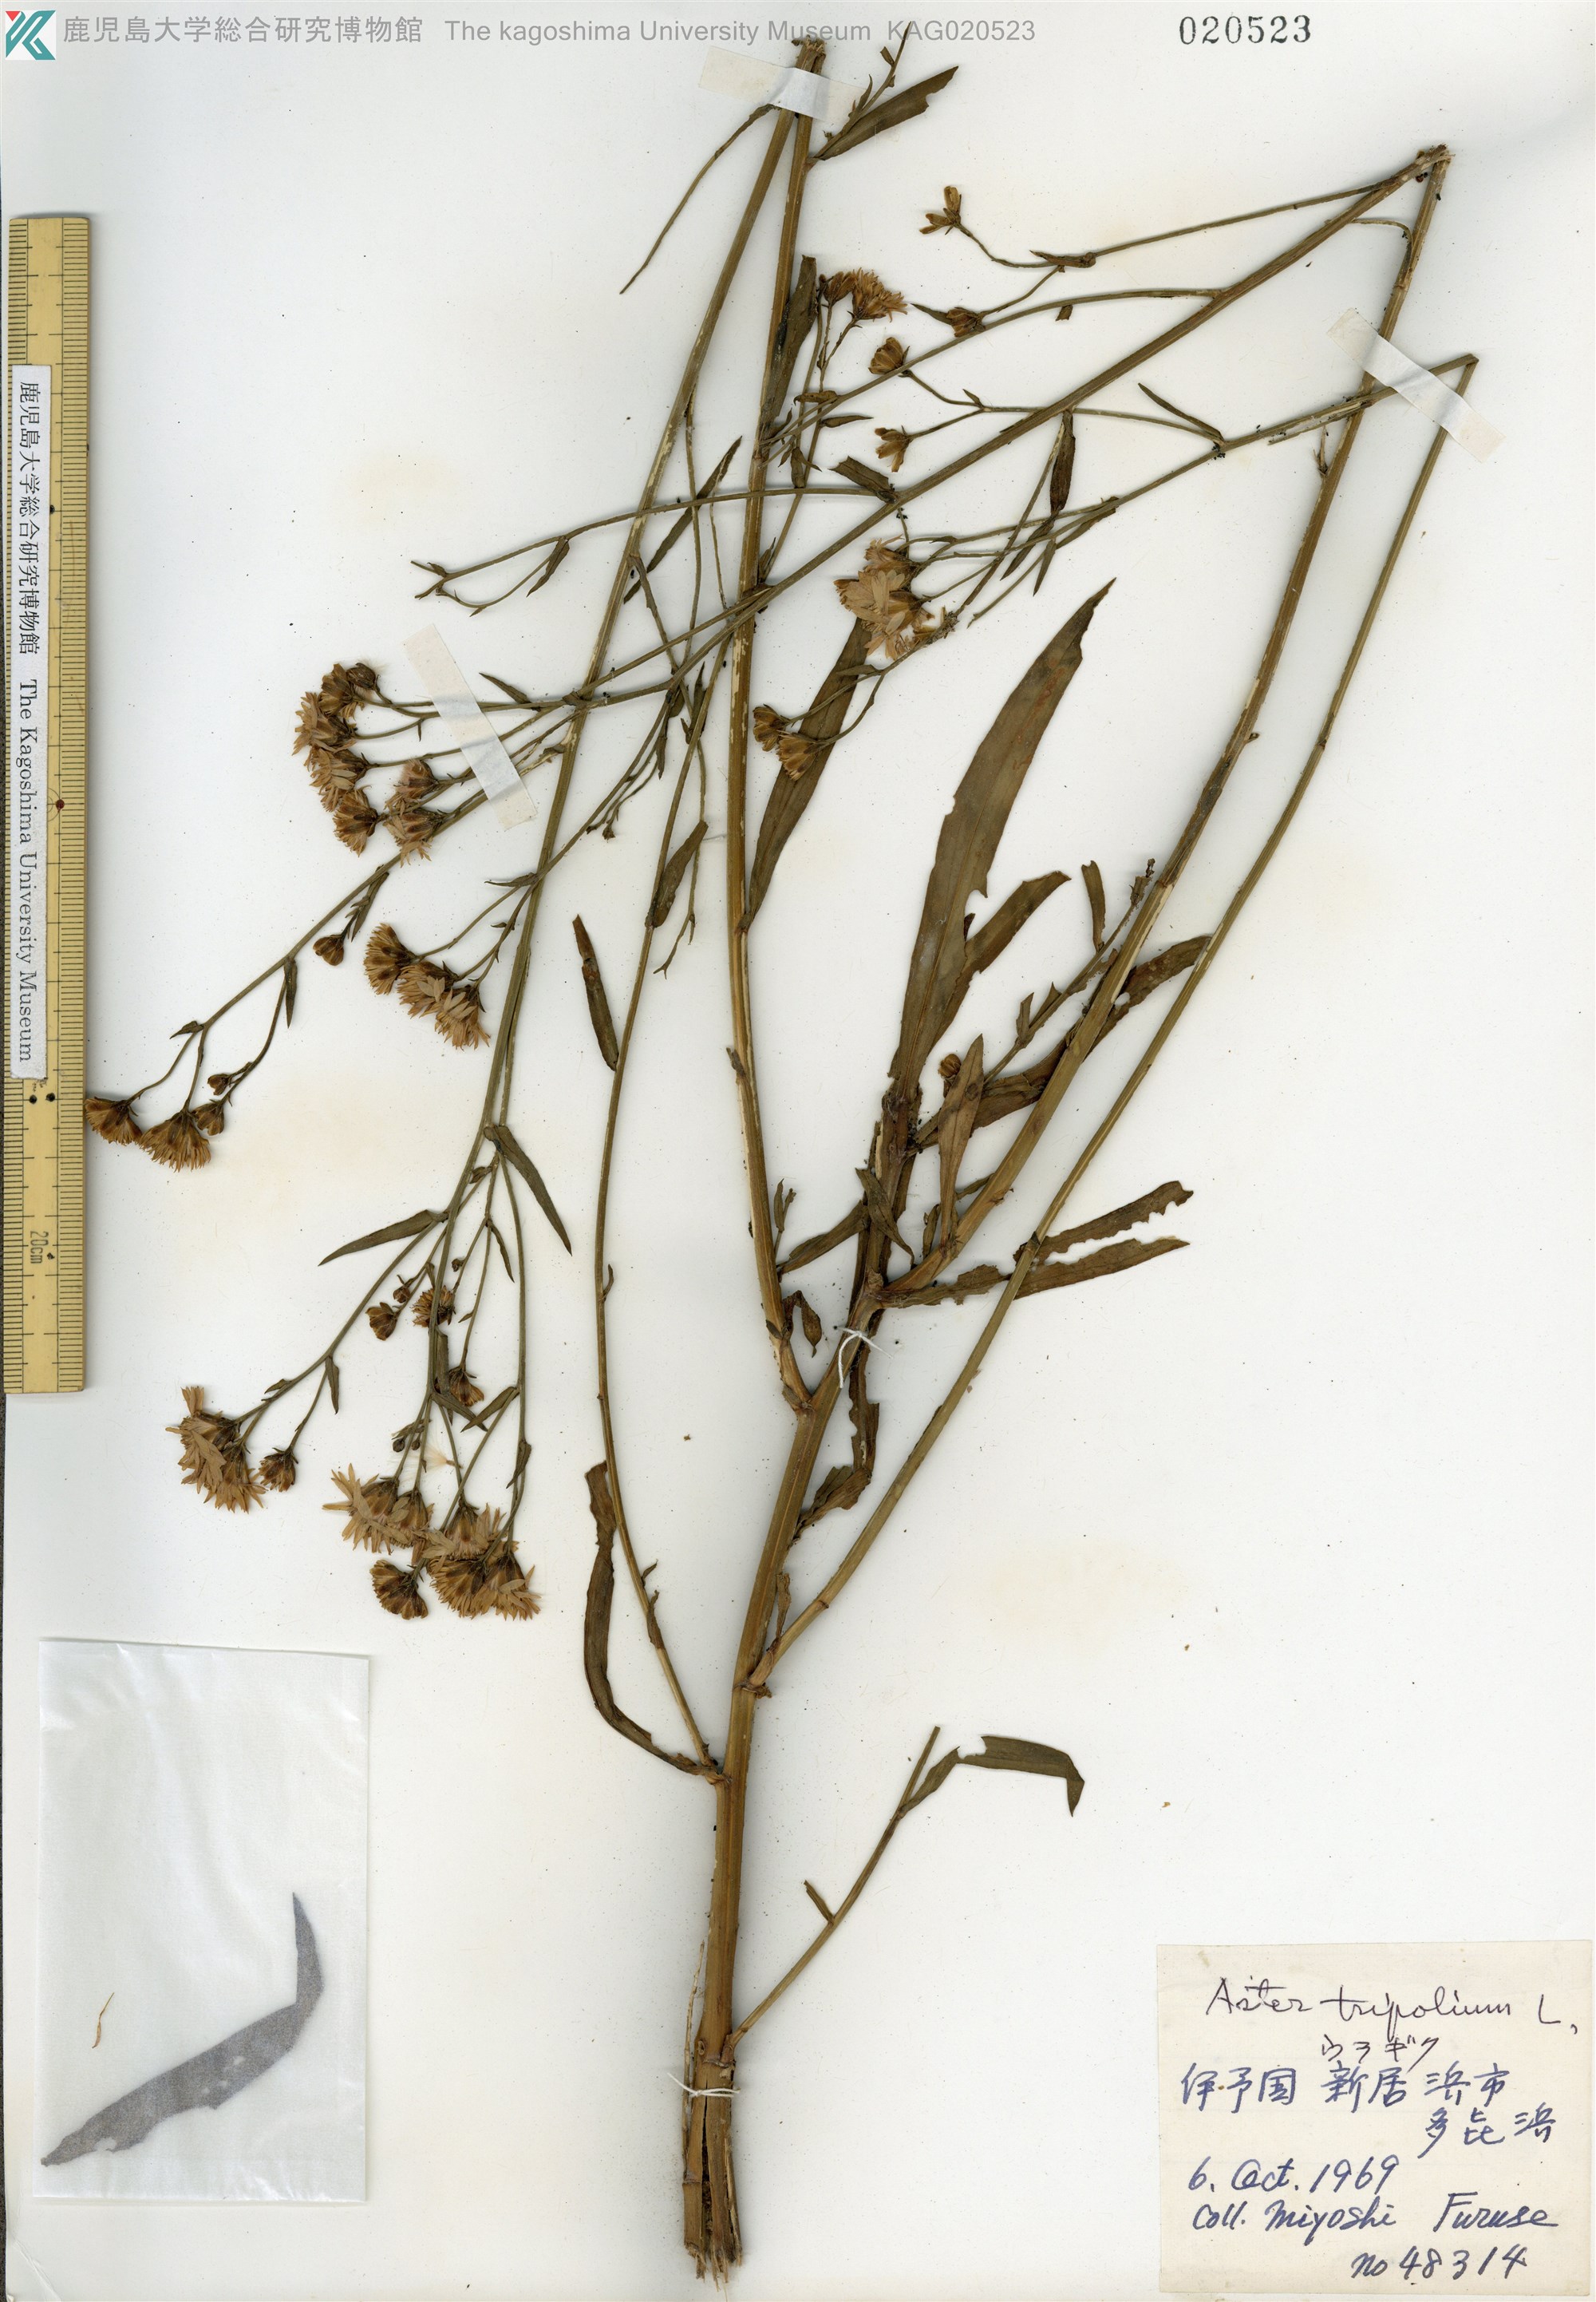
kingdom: Plantae
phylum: Tracheophyta
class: Magnoliopsida
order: Asterales
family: Asteraceae
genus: Tripolium
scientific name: Tripolium pannonicum
